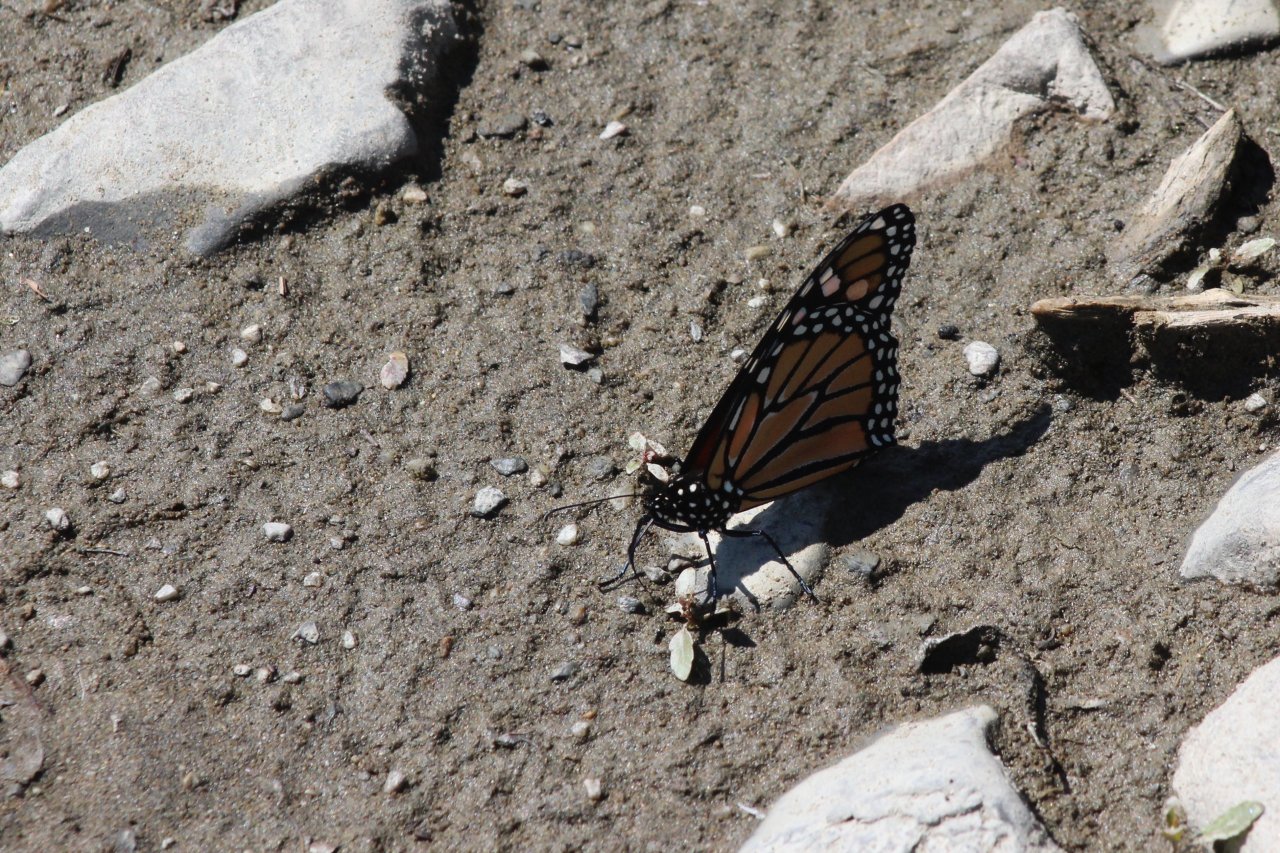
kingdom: Animalia
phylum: Arthropoda
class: Insecta
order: Lepidoptera
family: Nymphalidae
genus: Danaus
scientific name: Danaus plexippus
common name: Monarch
